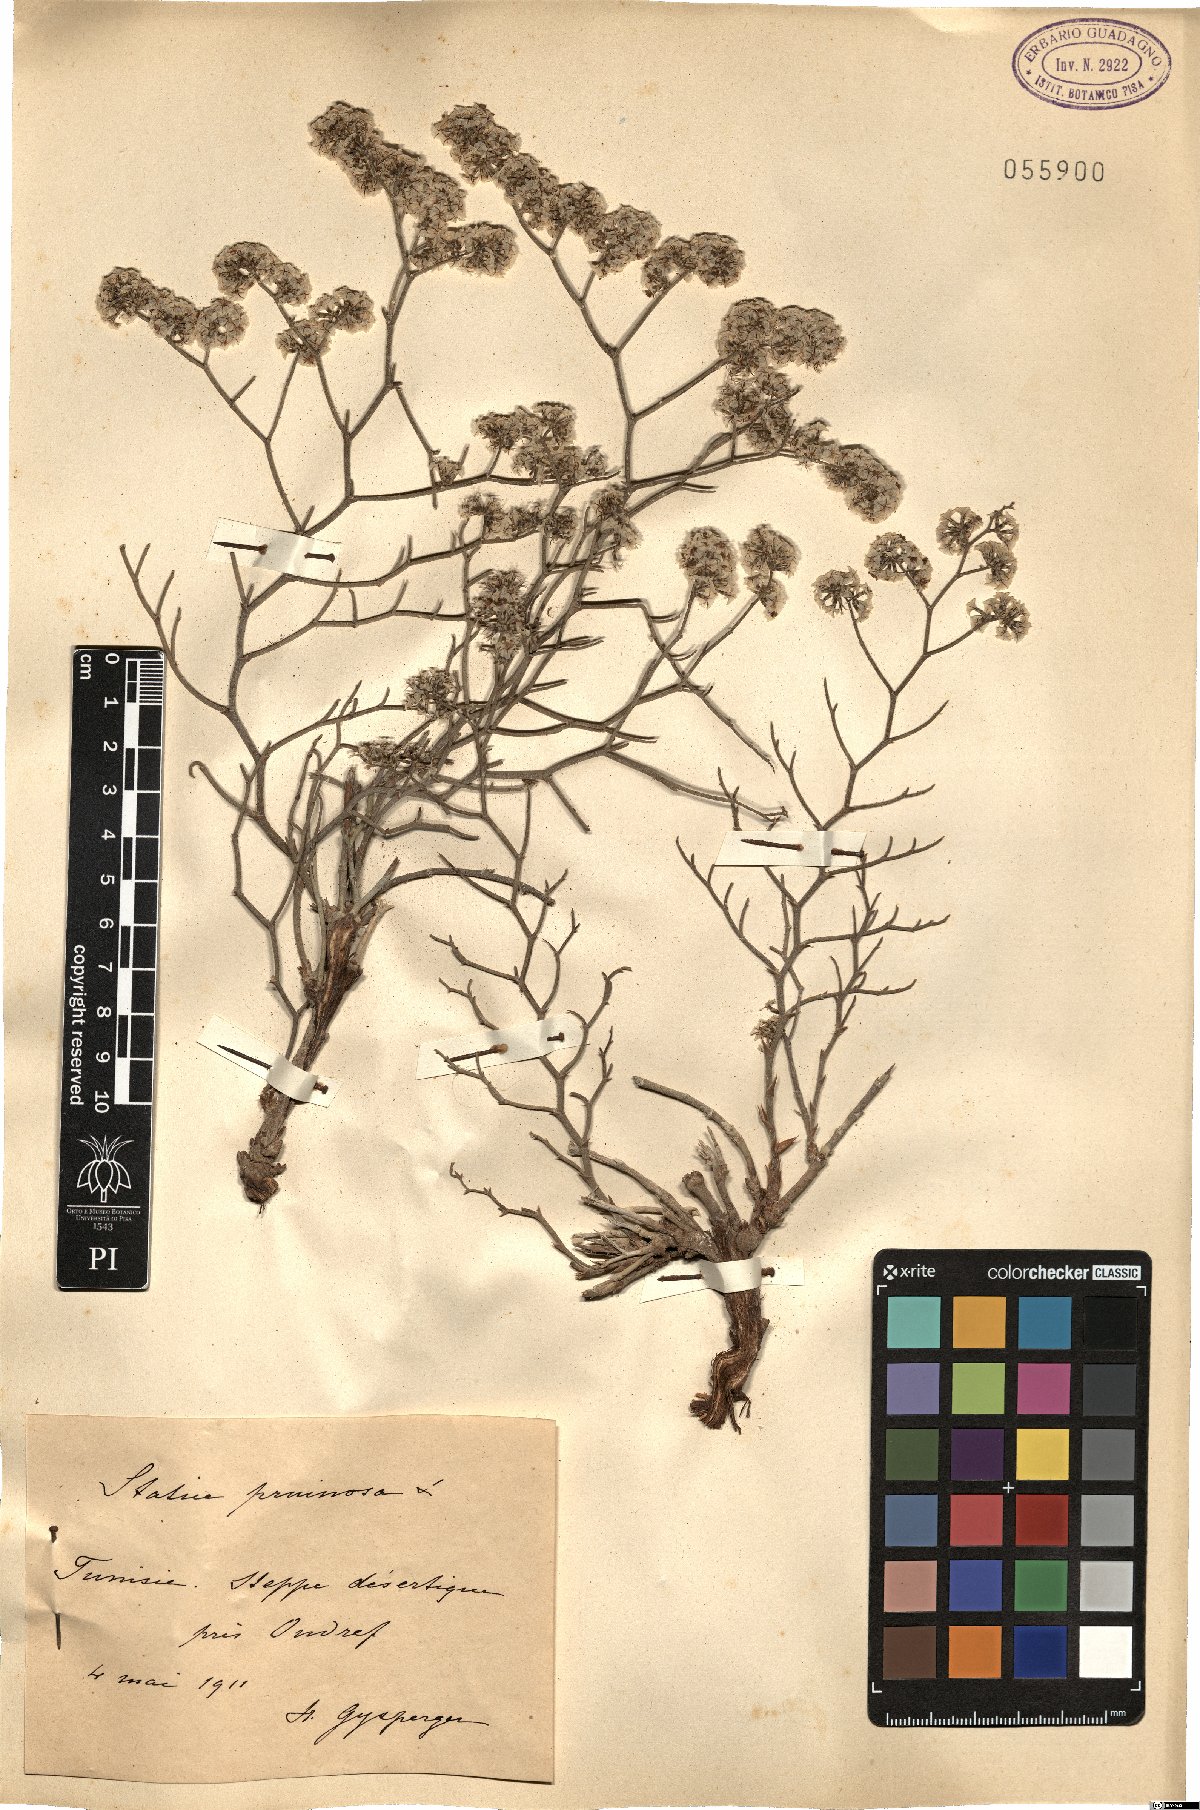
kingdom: Plantae
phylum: Tracheophyta
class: Magnoliopsida
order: Caryophyllales
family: Plumbaginaceae
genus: Limonium
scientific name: Limonium pruinosum
